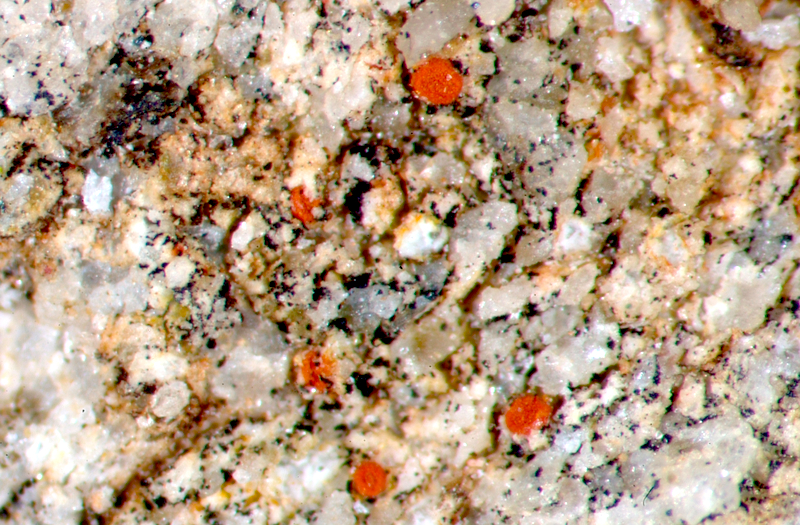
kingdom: Fungi
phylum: Ascomycota
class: Lecanoromycetes
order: Teloschistales
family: Teloschistaceae
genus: Caloplaca
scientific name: Caloplaca
